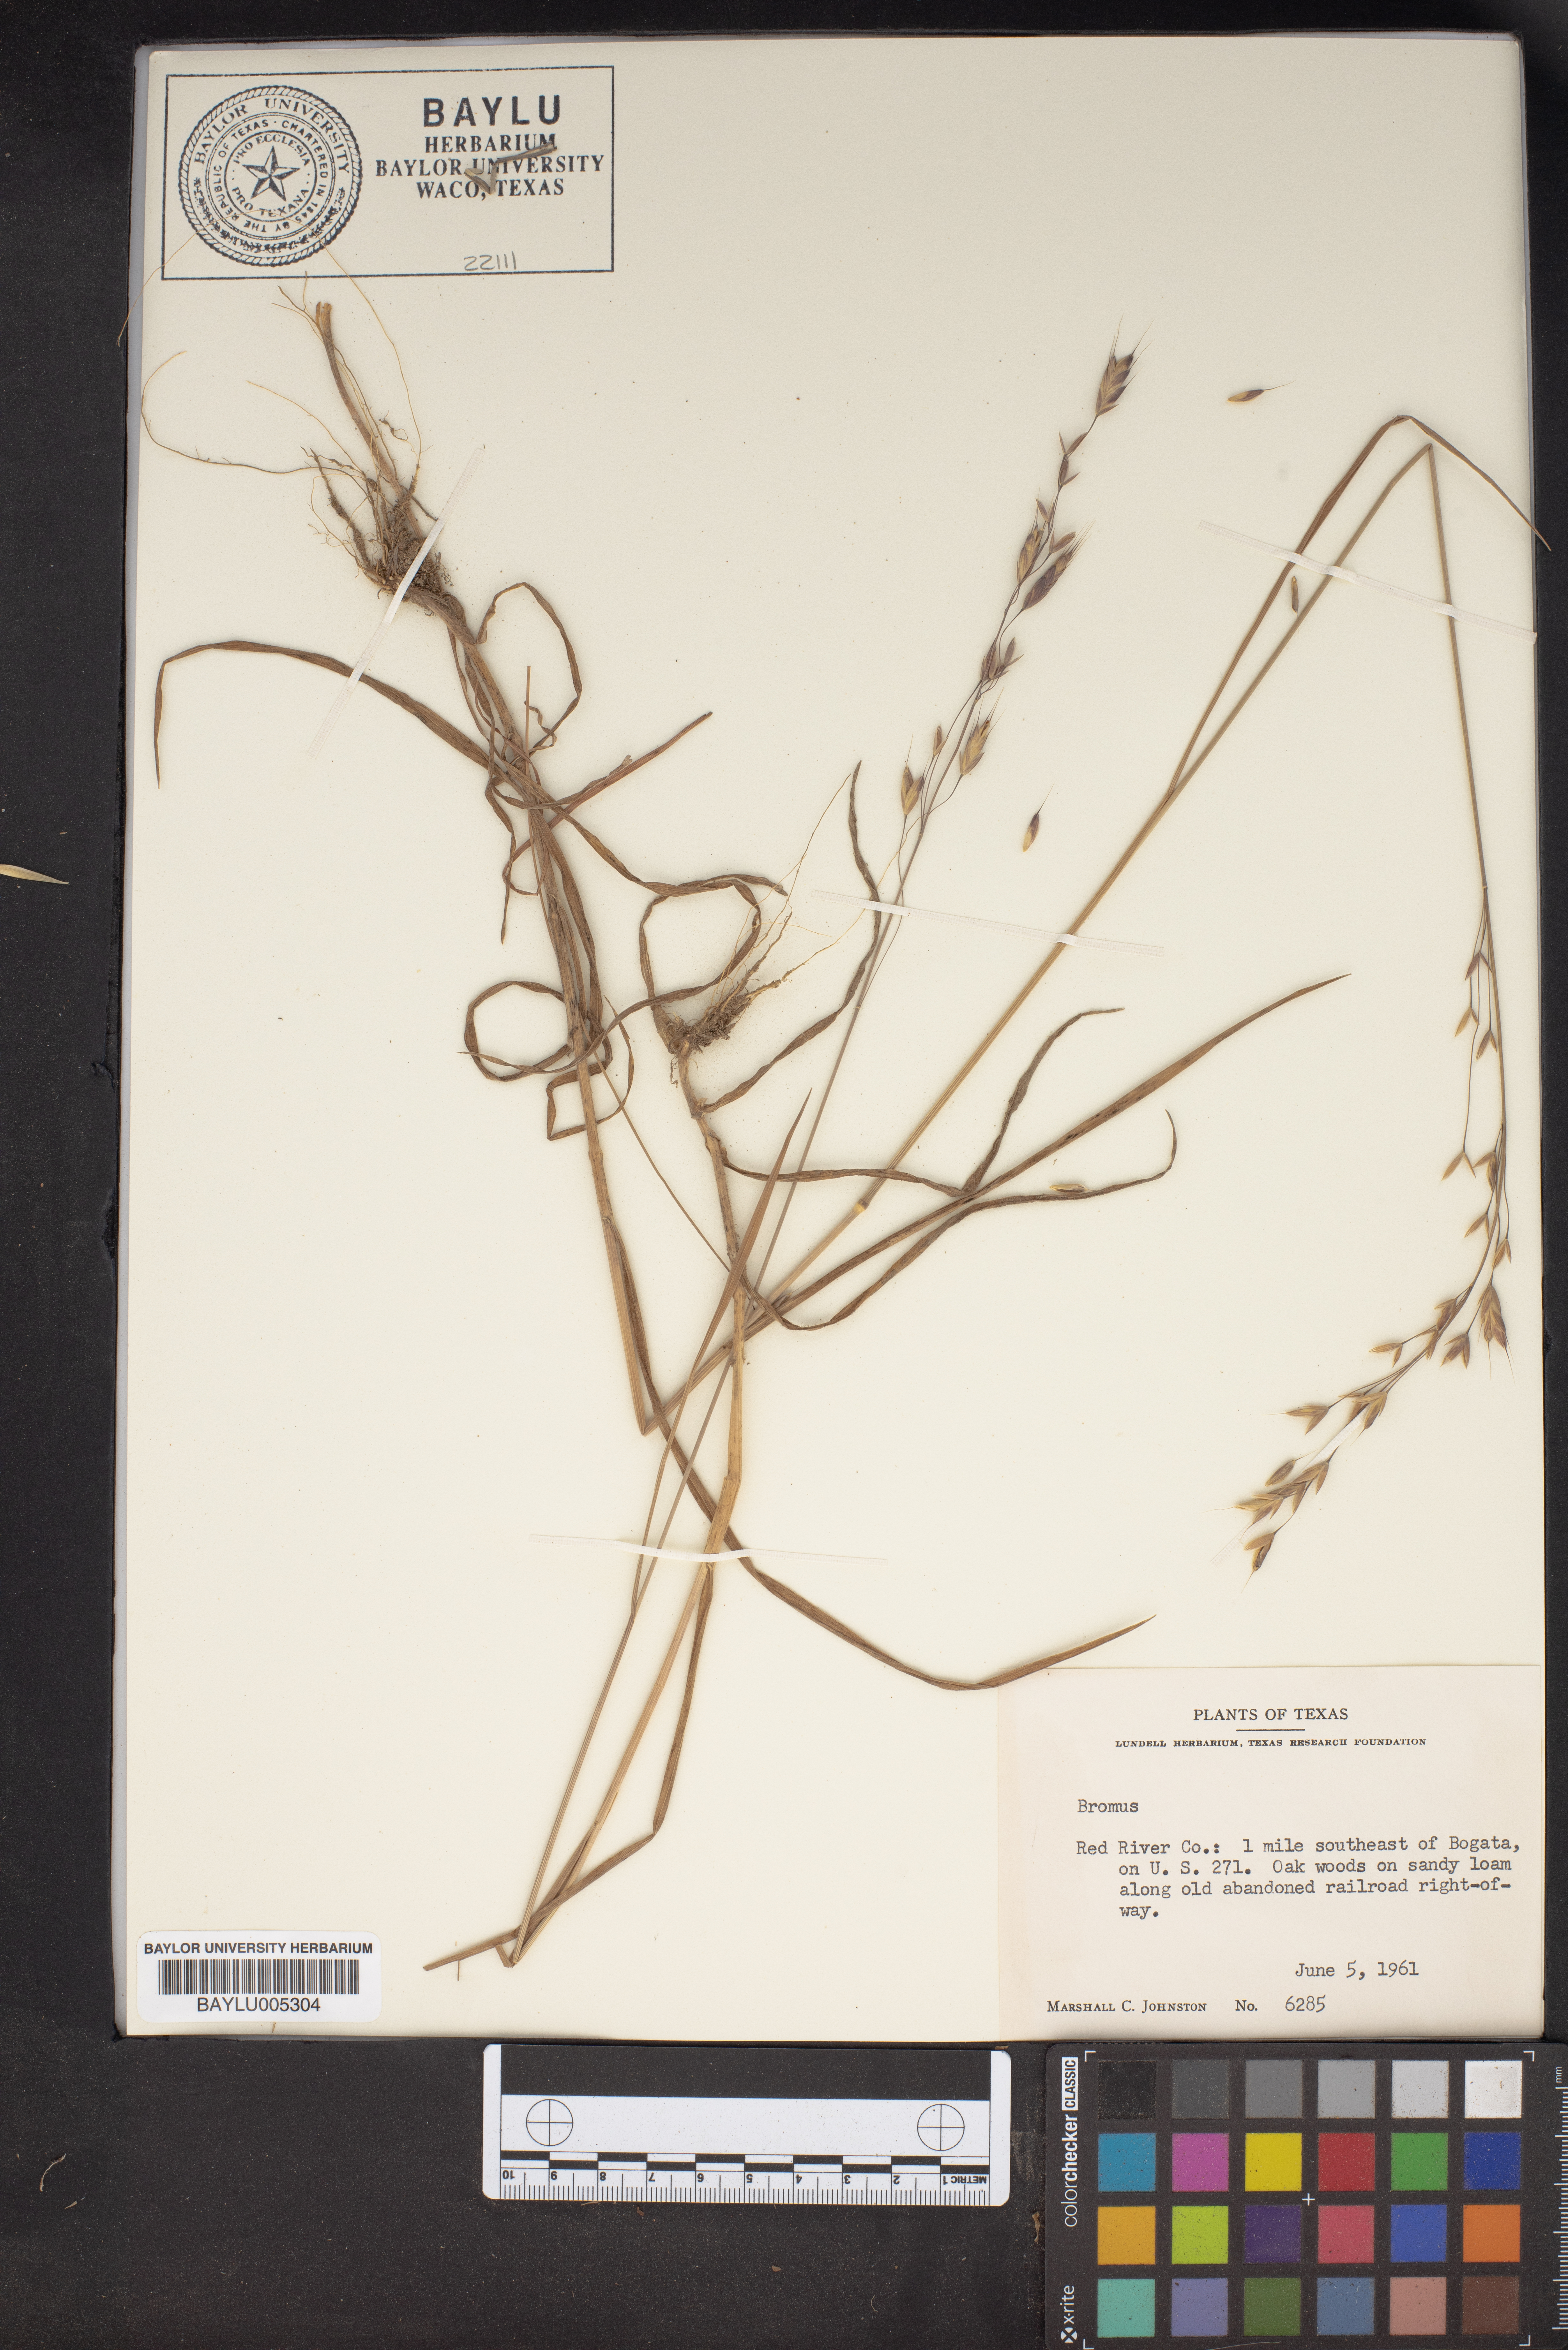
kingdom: Plantae
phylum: Tracheophyta
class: Liliopsida
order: Poales
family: Poaceae
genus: Bromus
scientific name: Bromus
